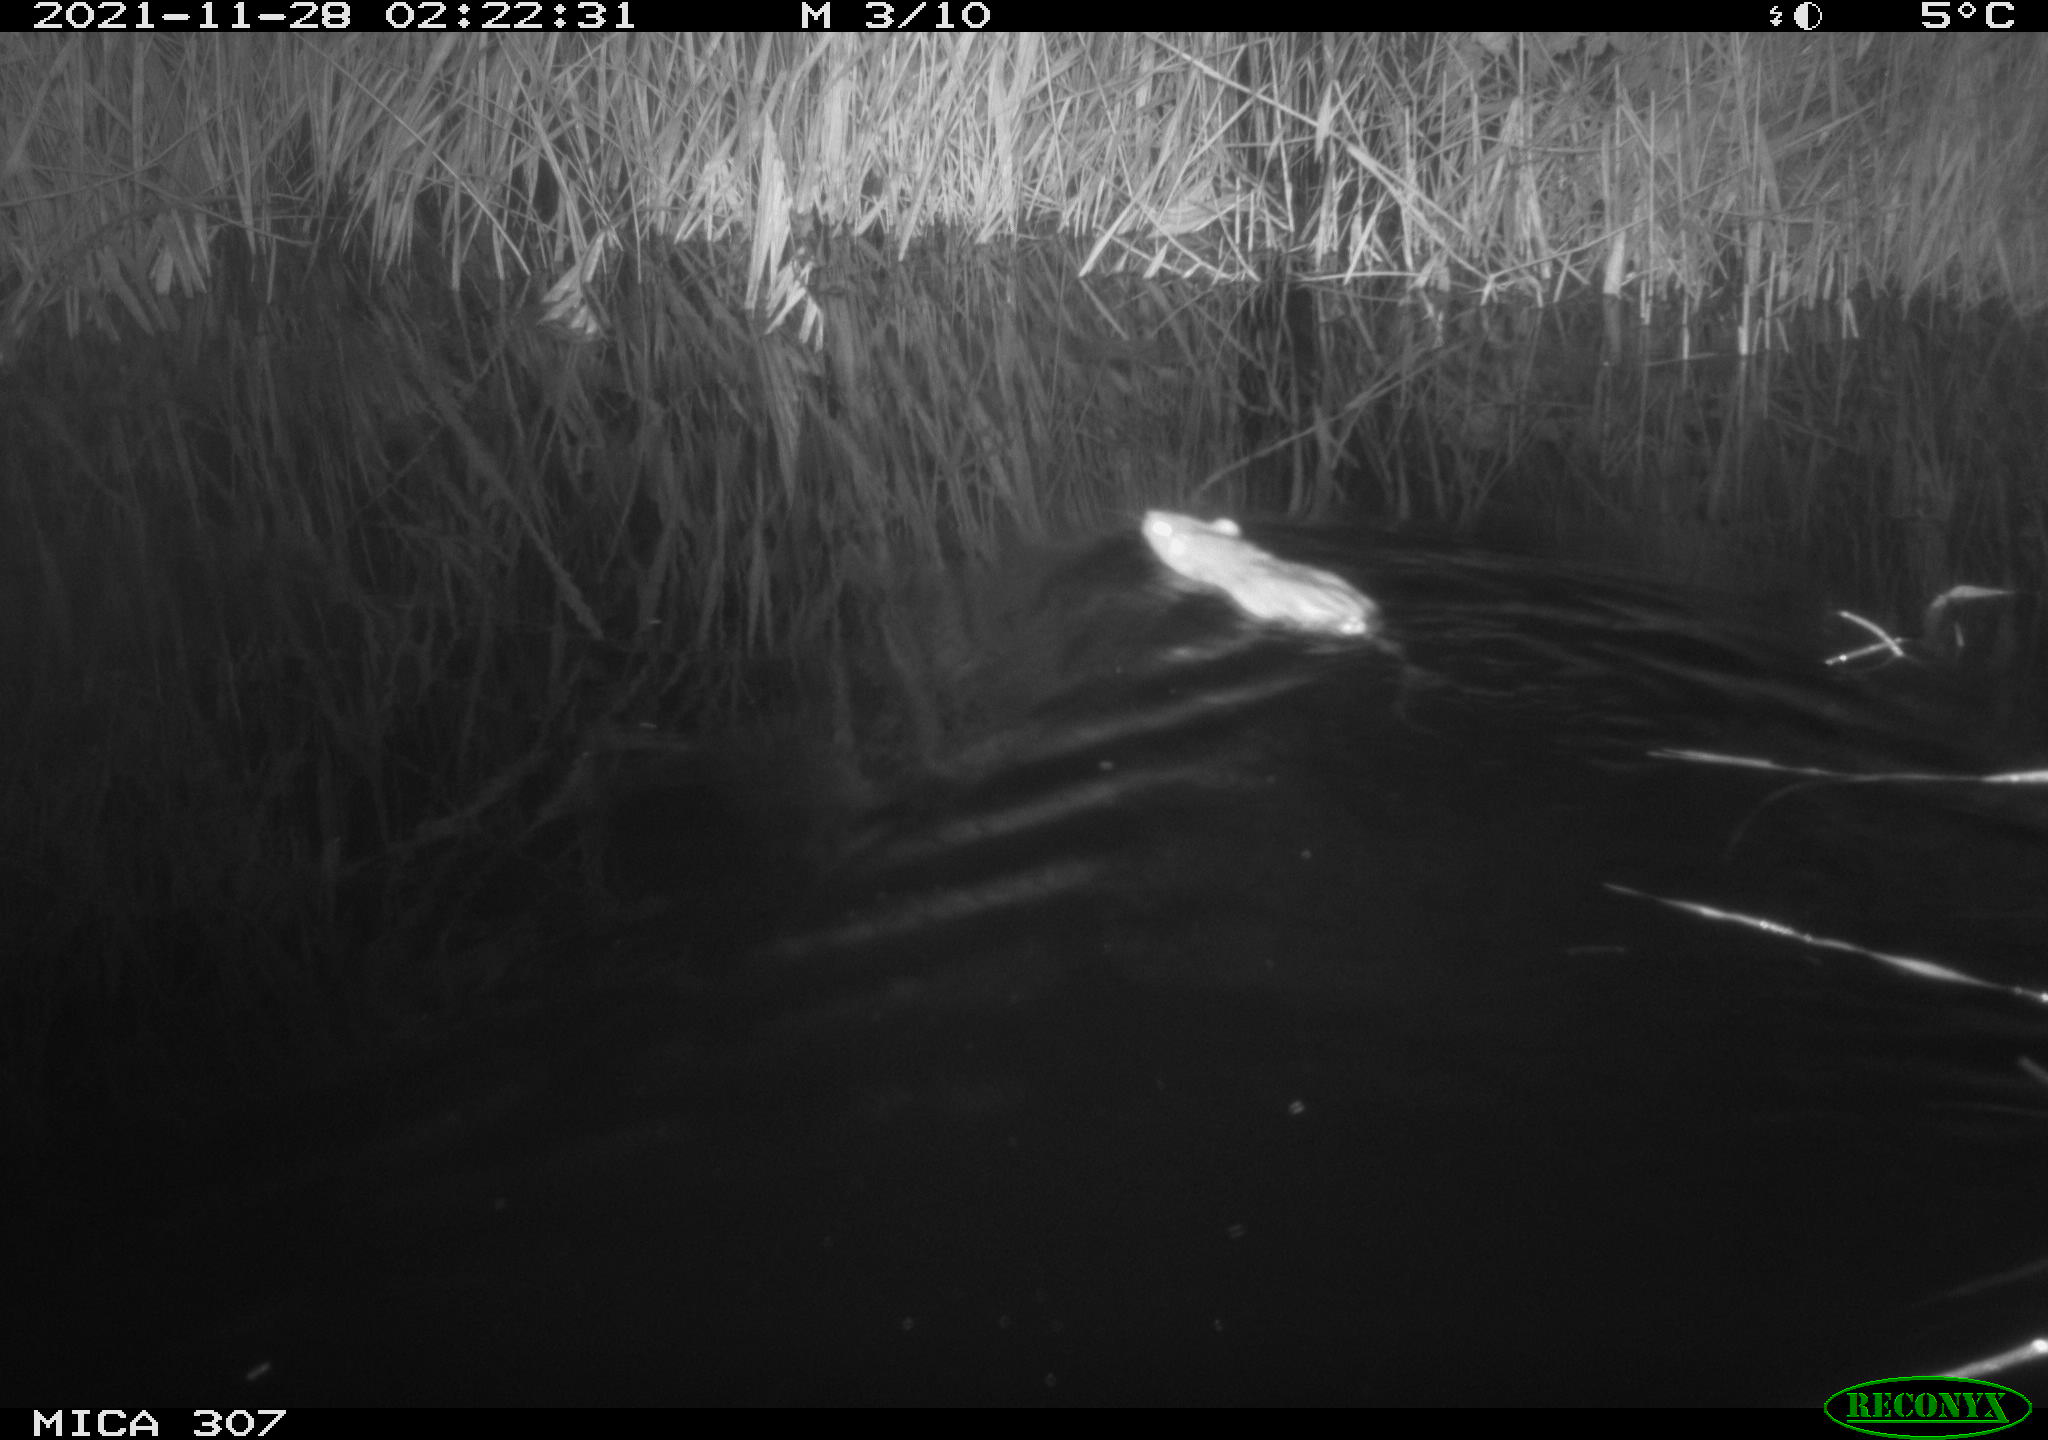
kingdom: Animalia
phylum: Chordata
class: Mammalia
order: Rodentia
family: Muridae
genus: Rattus
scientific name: Rattus norvegicus
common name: Brown rat
